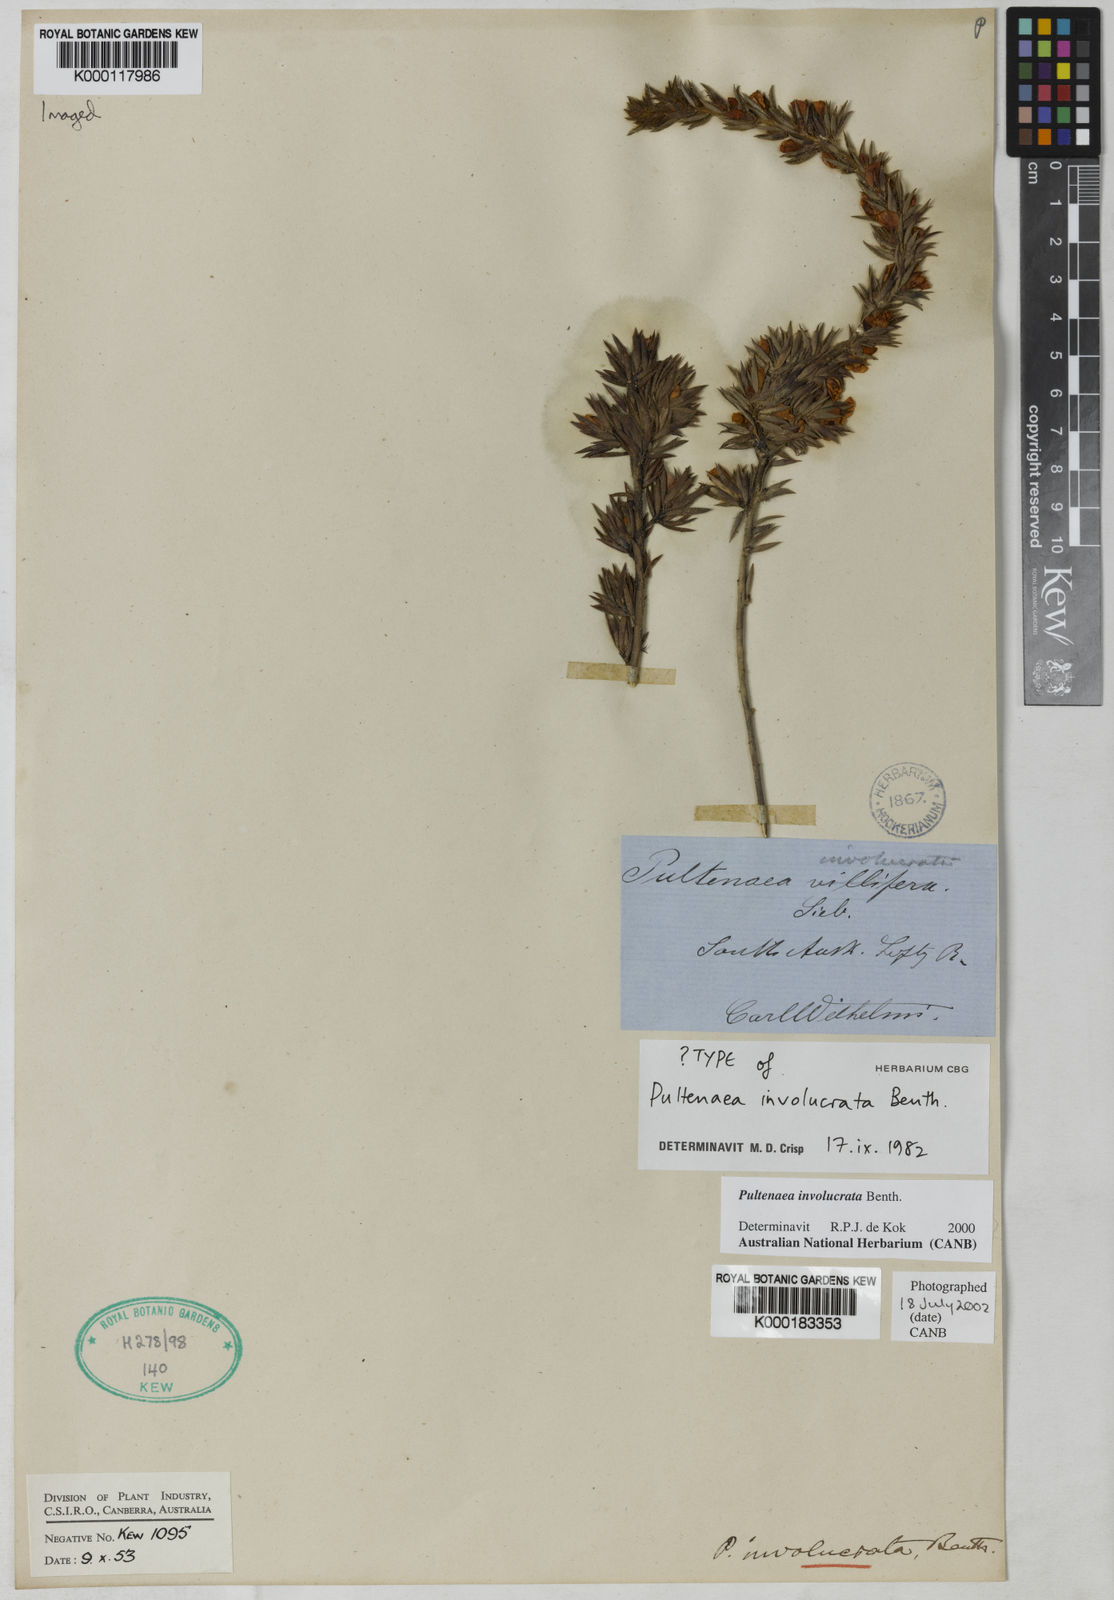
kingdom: Plantae
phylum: Tracheophyta
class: Magnoliopsida
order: Fabales
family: Fabaceae
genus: Pultenaea
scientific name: Pultenaea involucrata
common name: Mount lofty bush-pea
